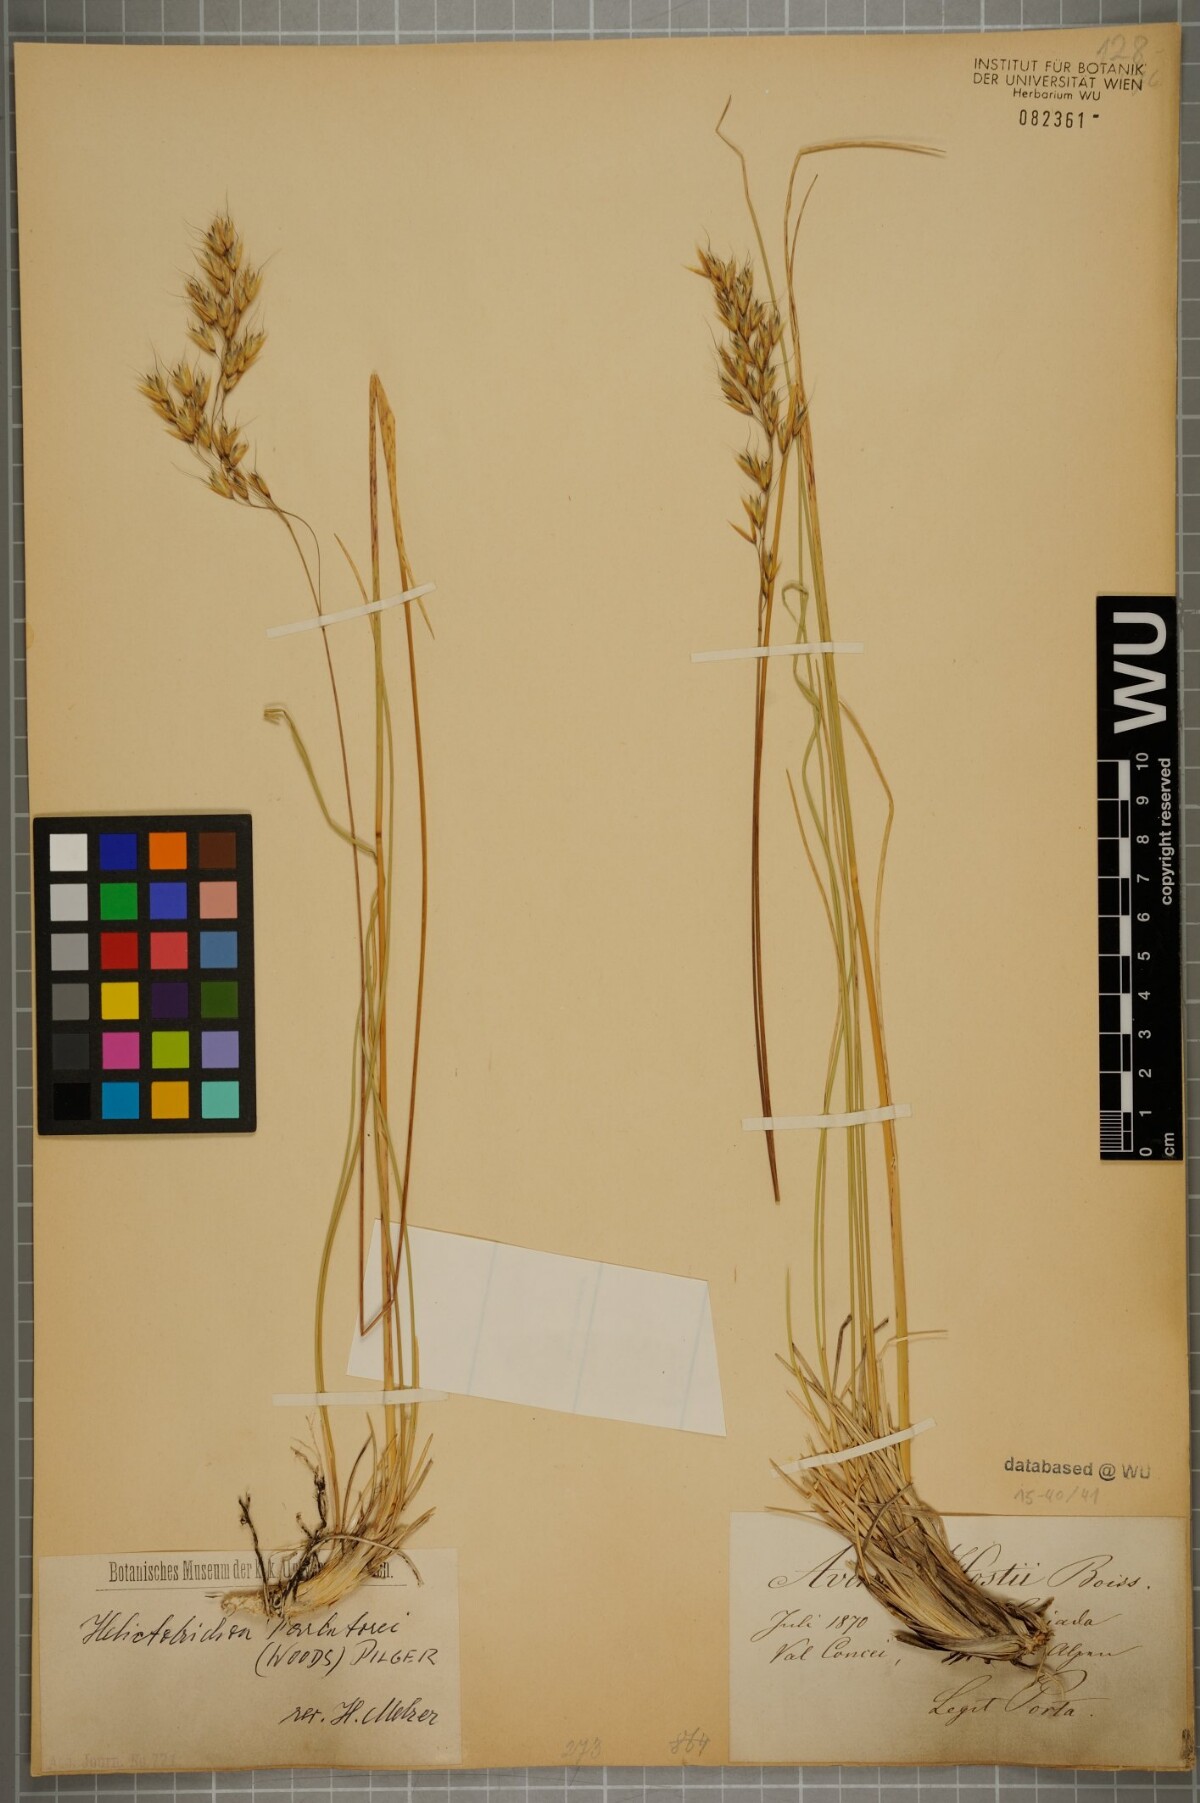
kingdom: Plantae
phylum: Tracheophyta
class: Liliopsida
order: Poales
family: Poaceae
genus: Helictotrichon
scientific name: Helictotrichon parlatorei
